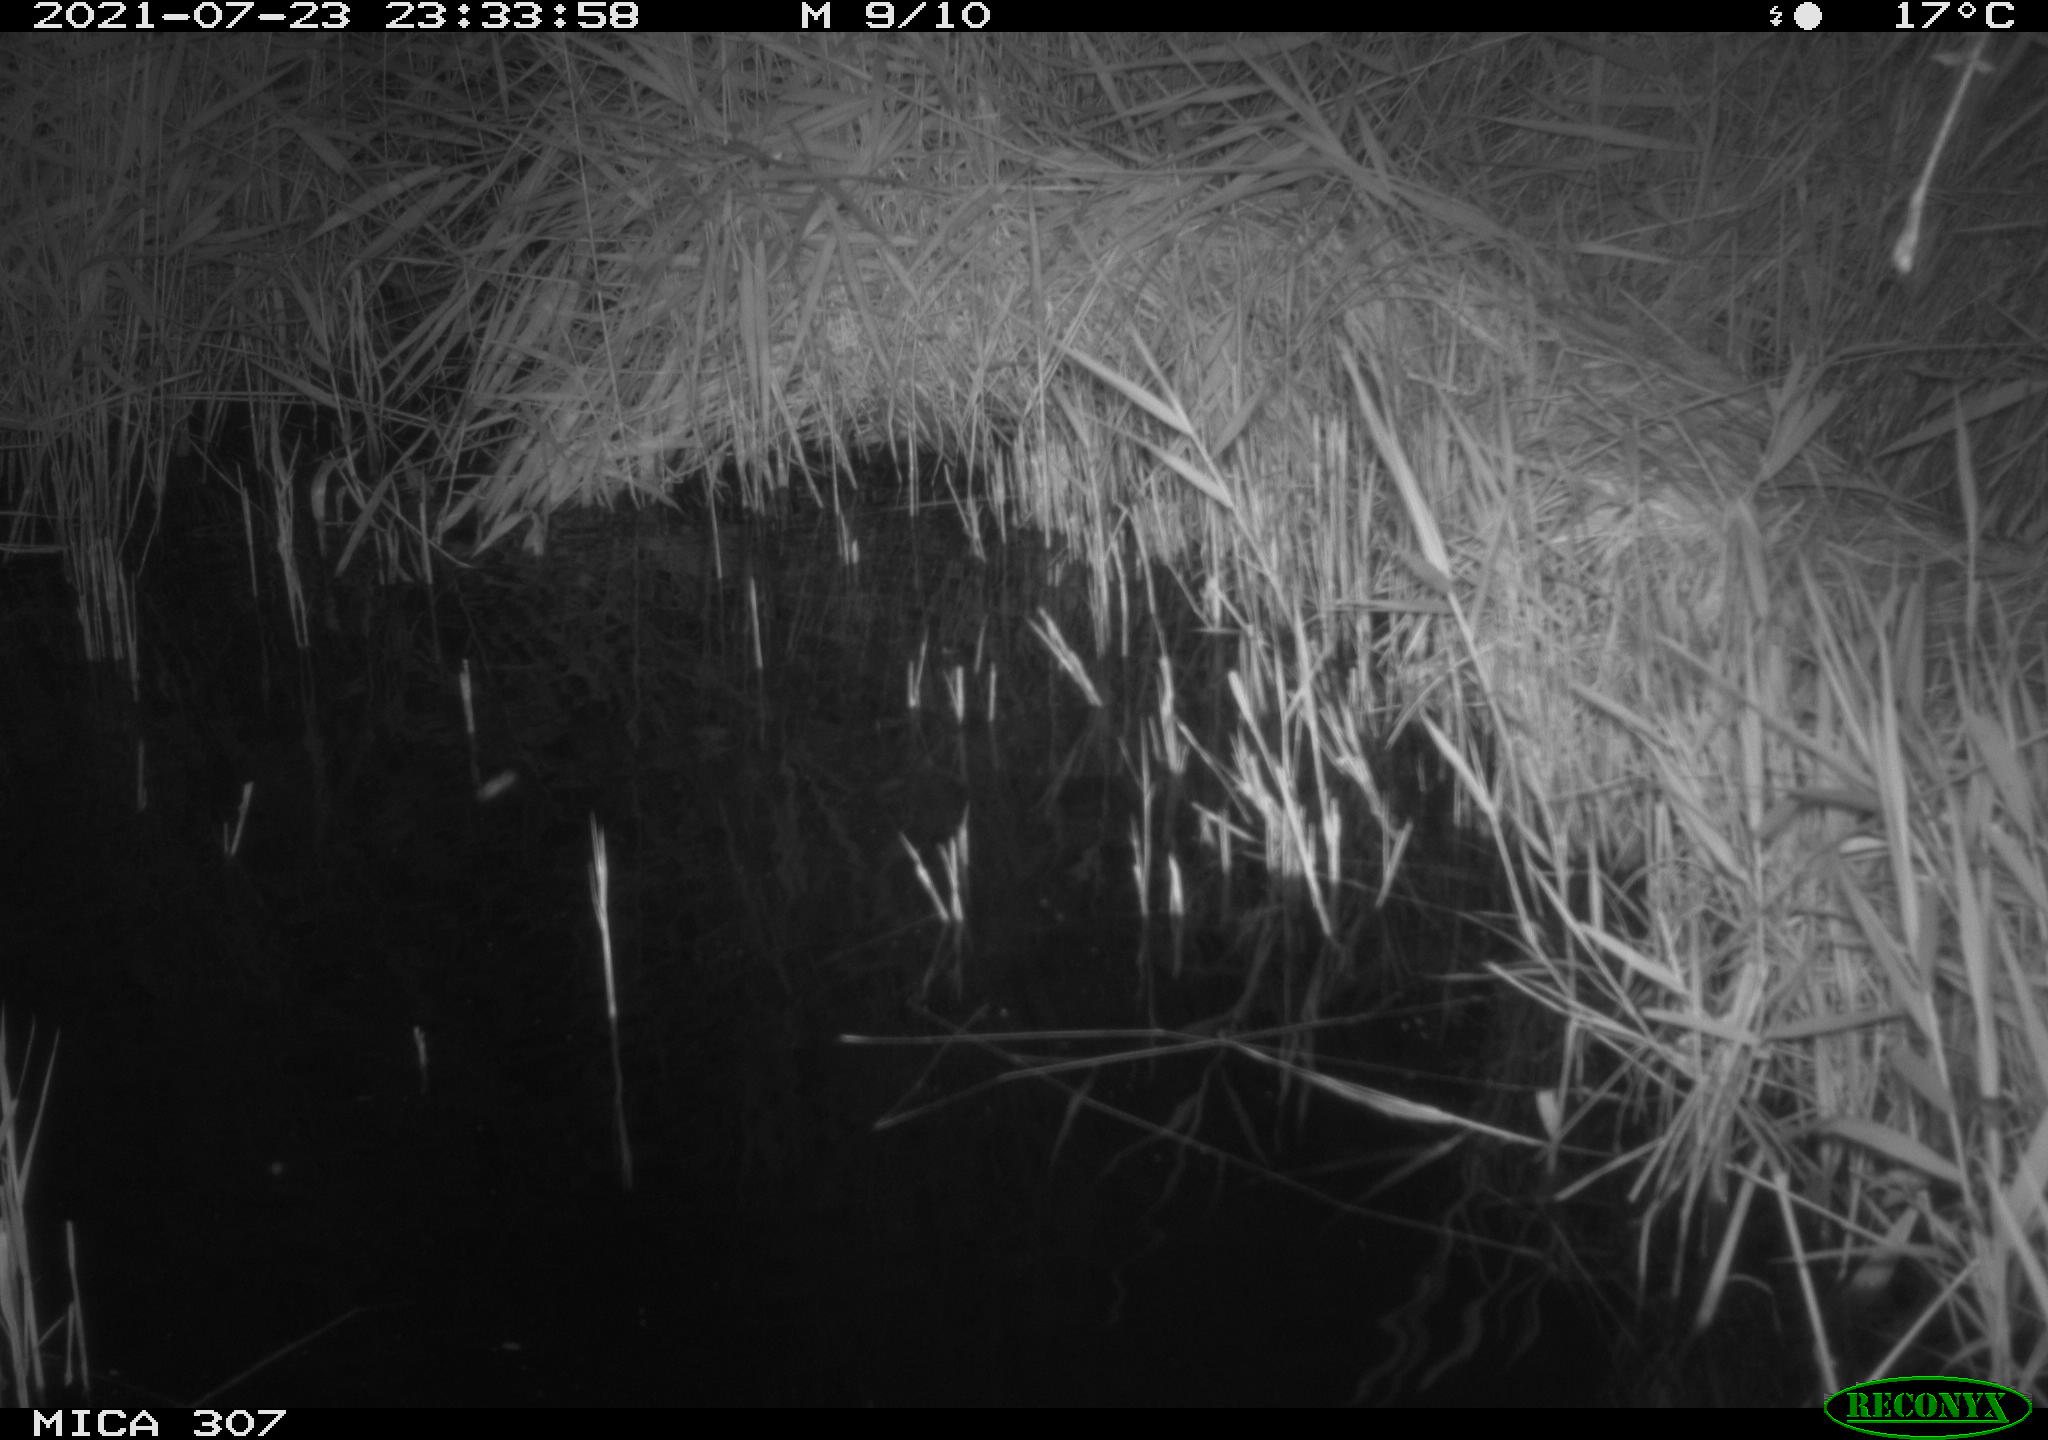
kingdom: Animalia
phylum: Chordata
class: Mammalia
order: Rodentia
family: Muridae
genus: Rattus
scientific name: Rattus norvegicus
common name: Brown rat
